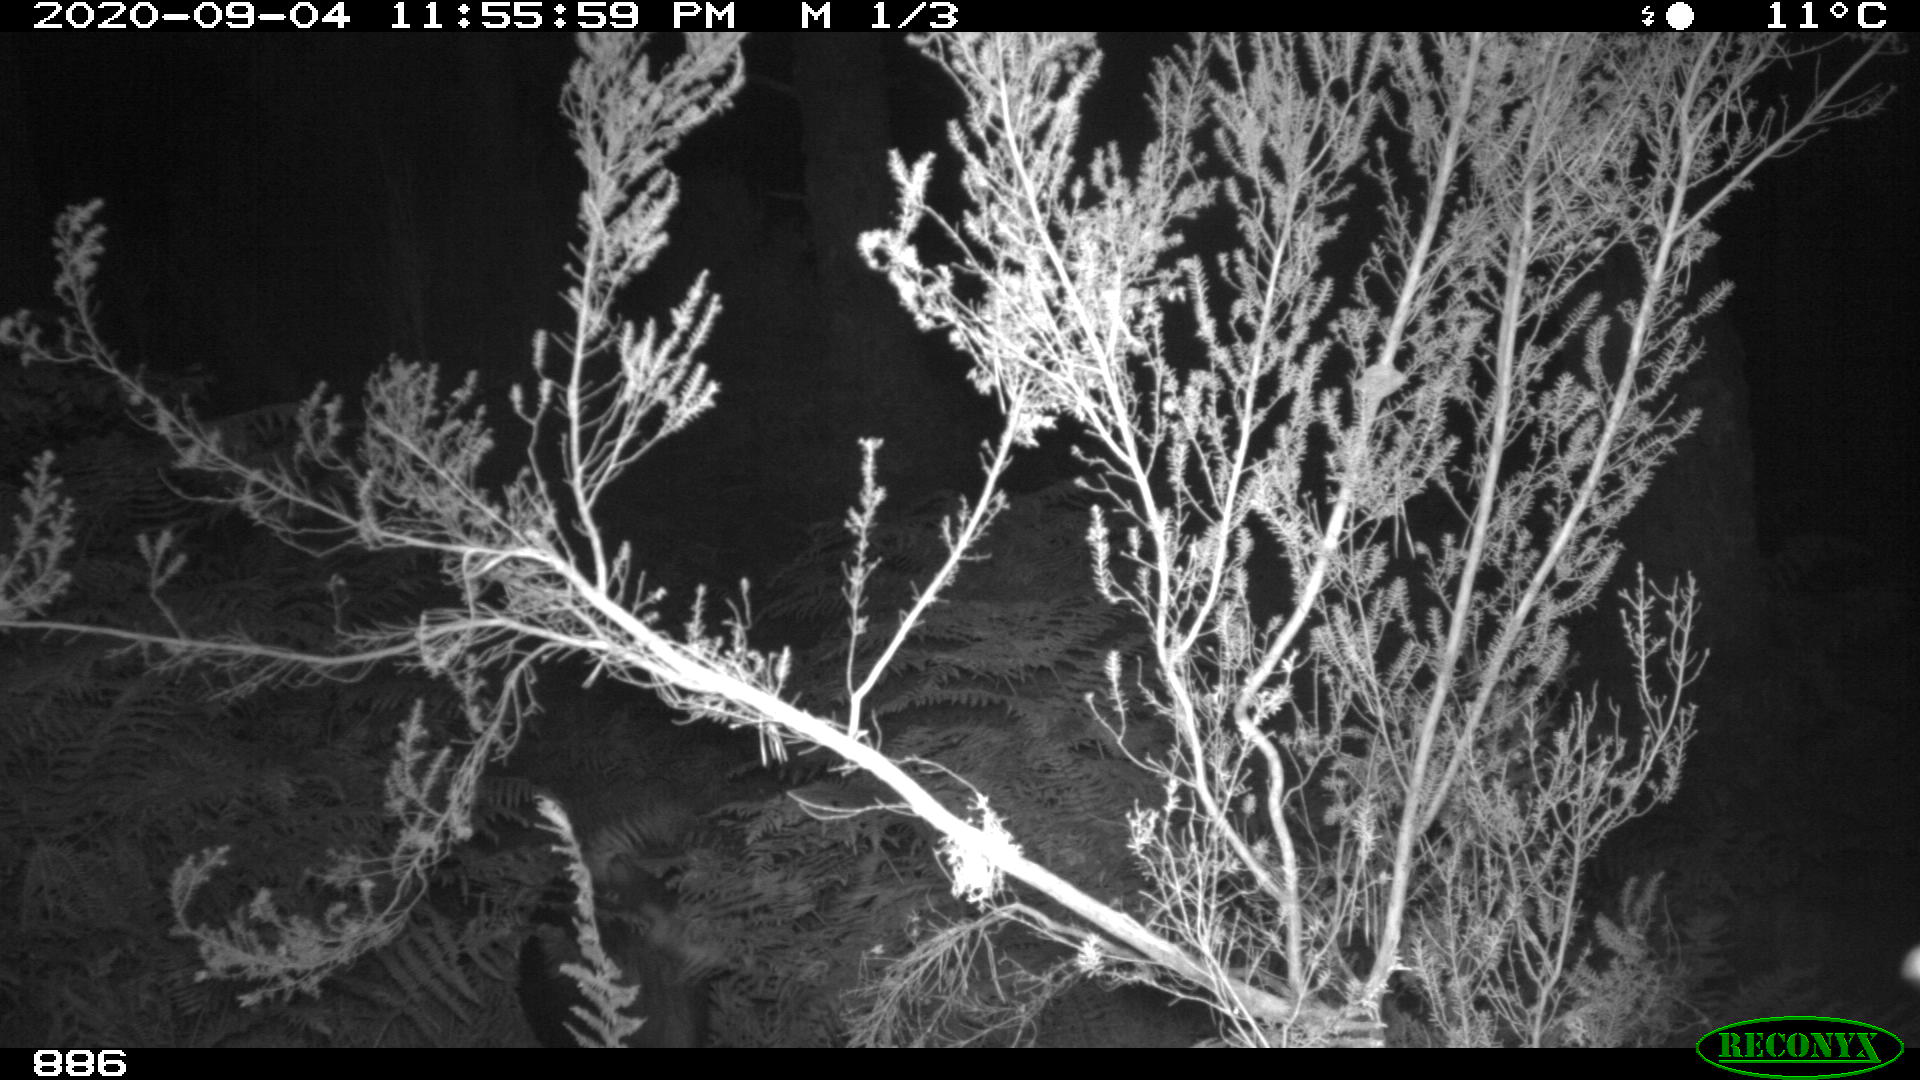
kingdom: Animalia
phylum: Chordata
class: Mammalia
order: Artiodactyla
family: Suidae
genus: Sus
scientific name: Sus scrofa
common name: Wild boar
